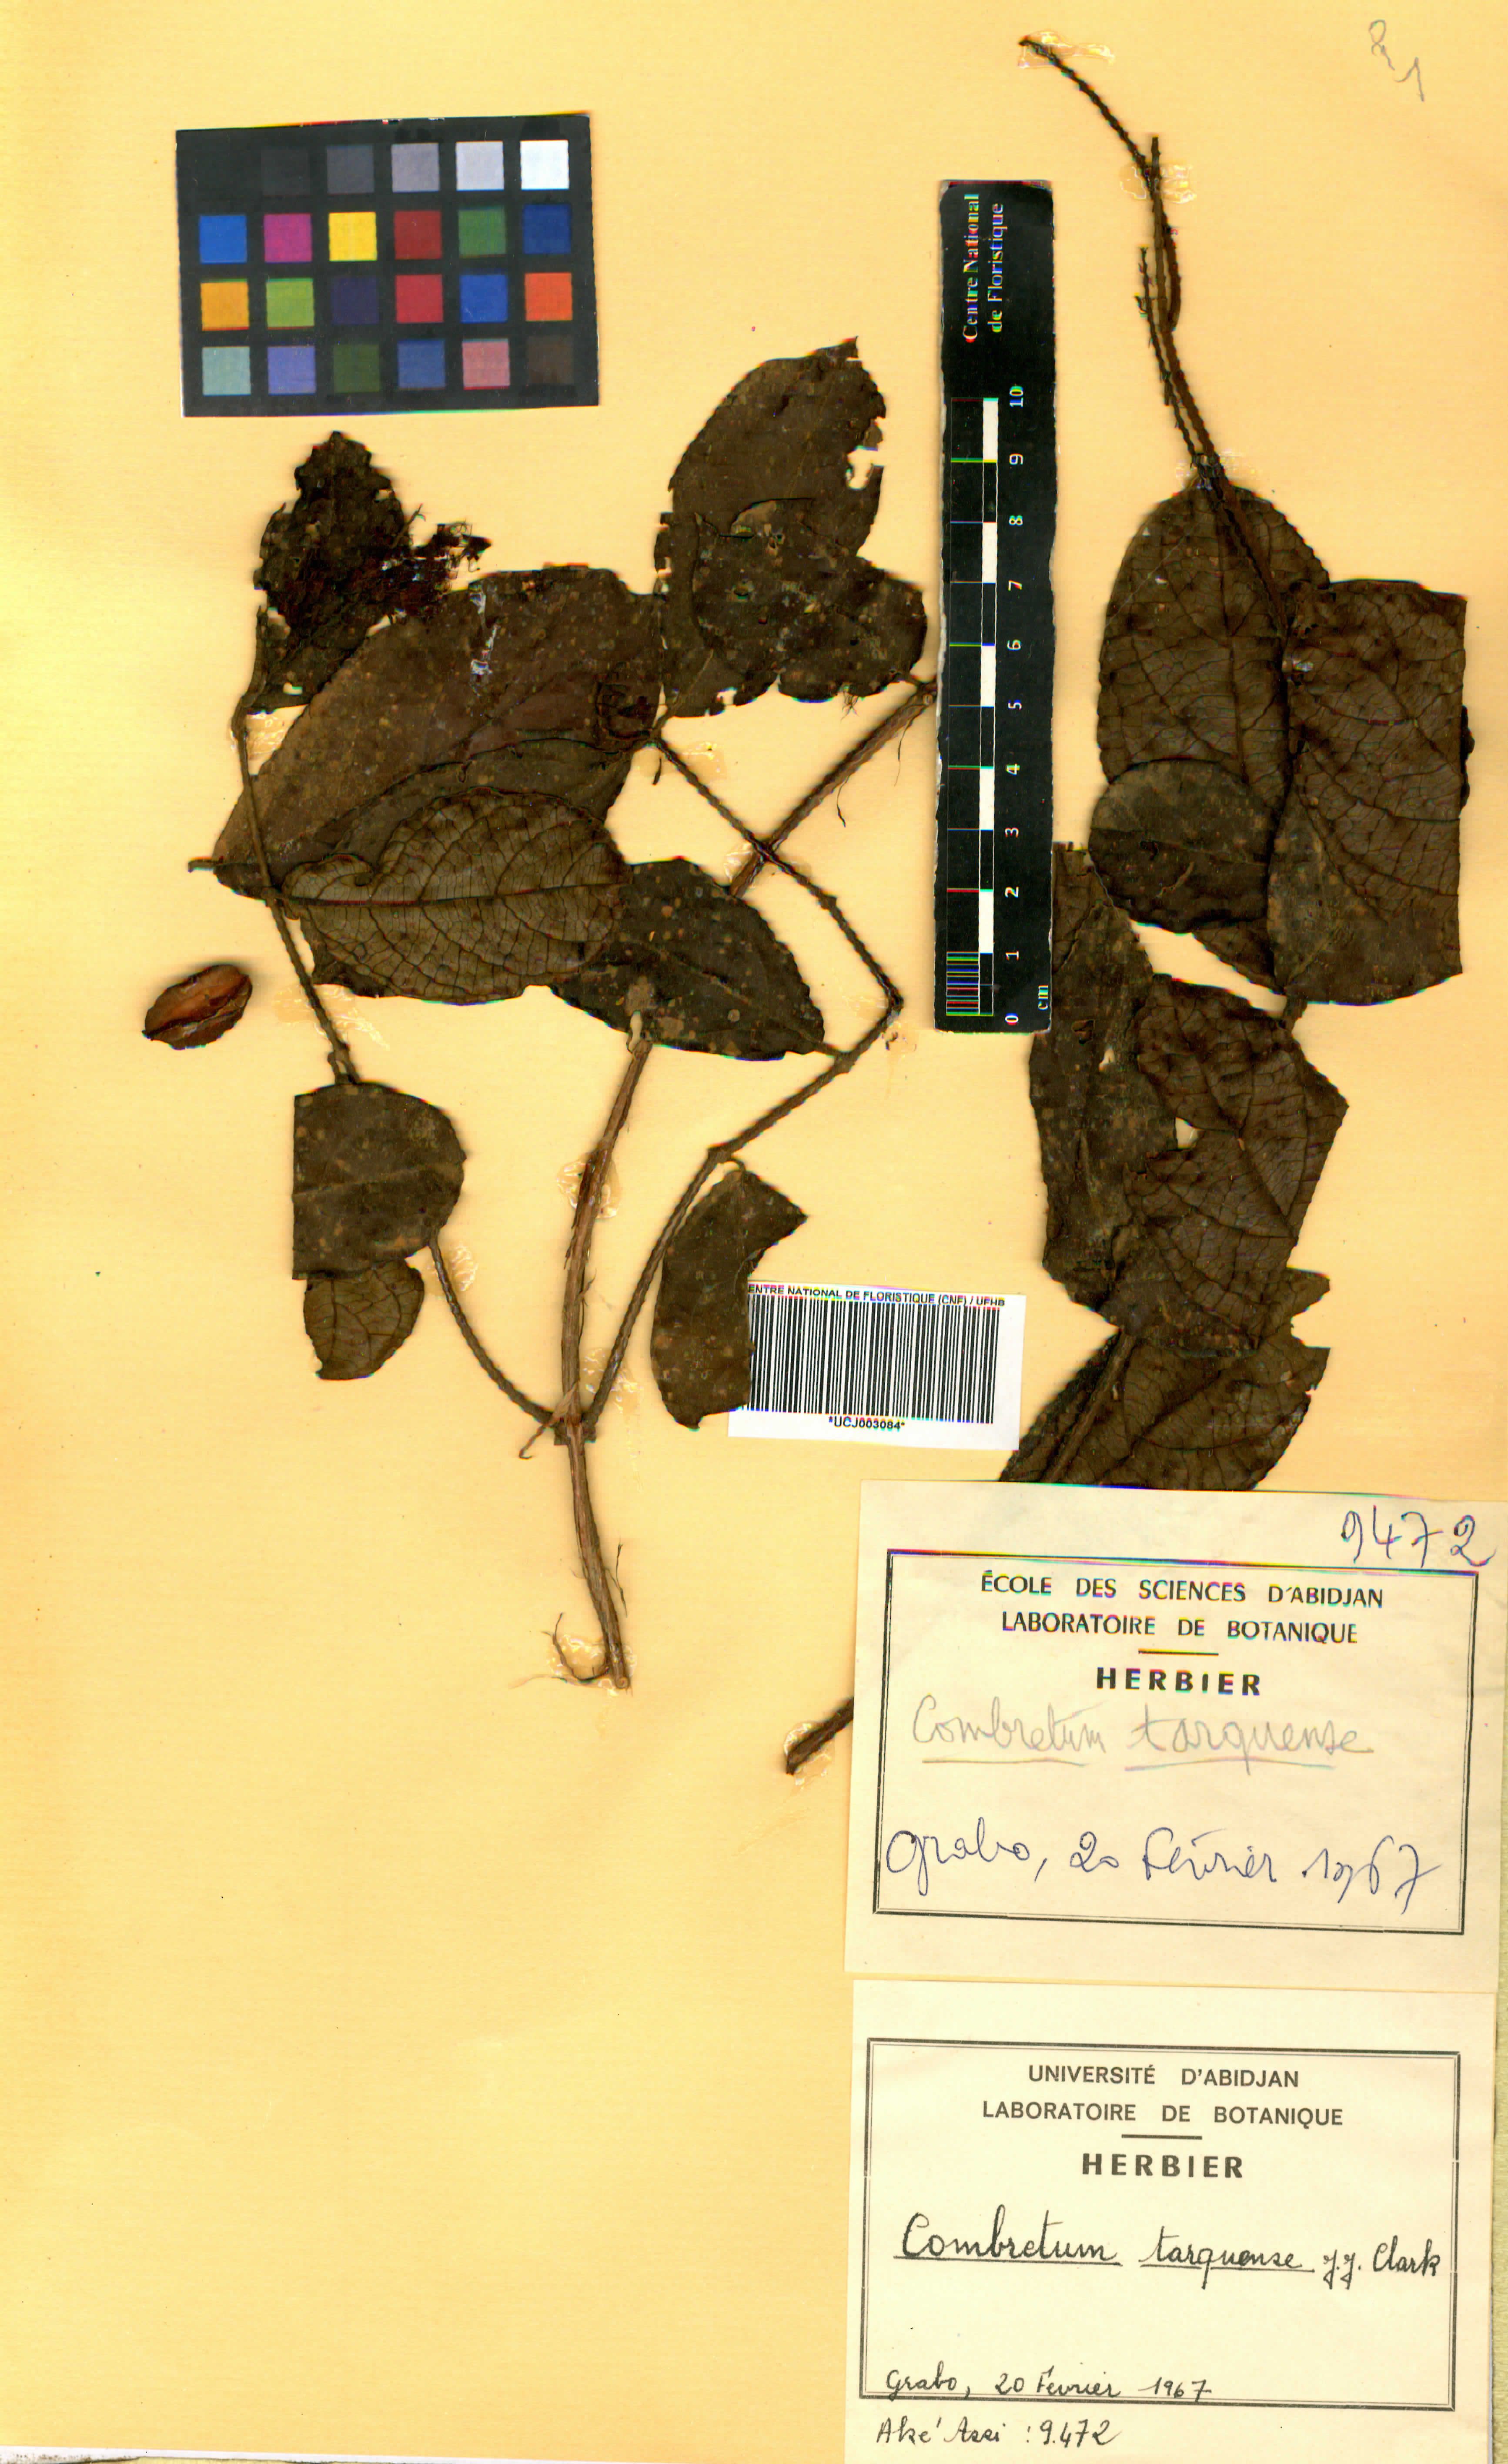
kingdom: Plantae
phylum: Tracheophyta
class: Magnoliopsida
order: Myrtales
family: Combretaceae
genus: Combretum
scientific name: Combretum tarquense
